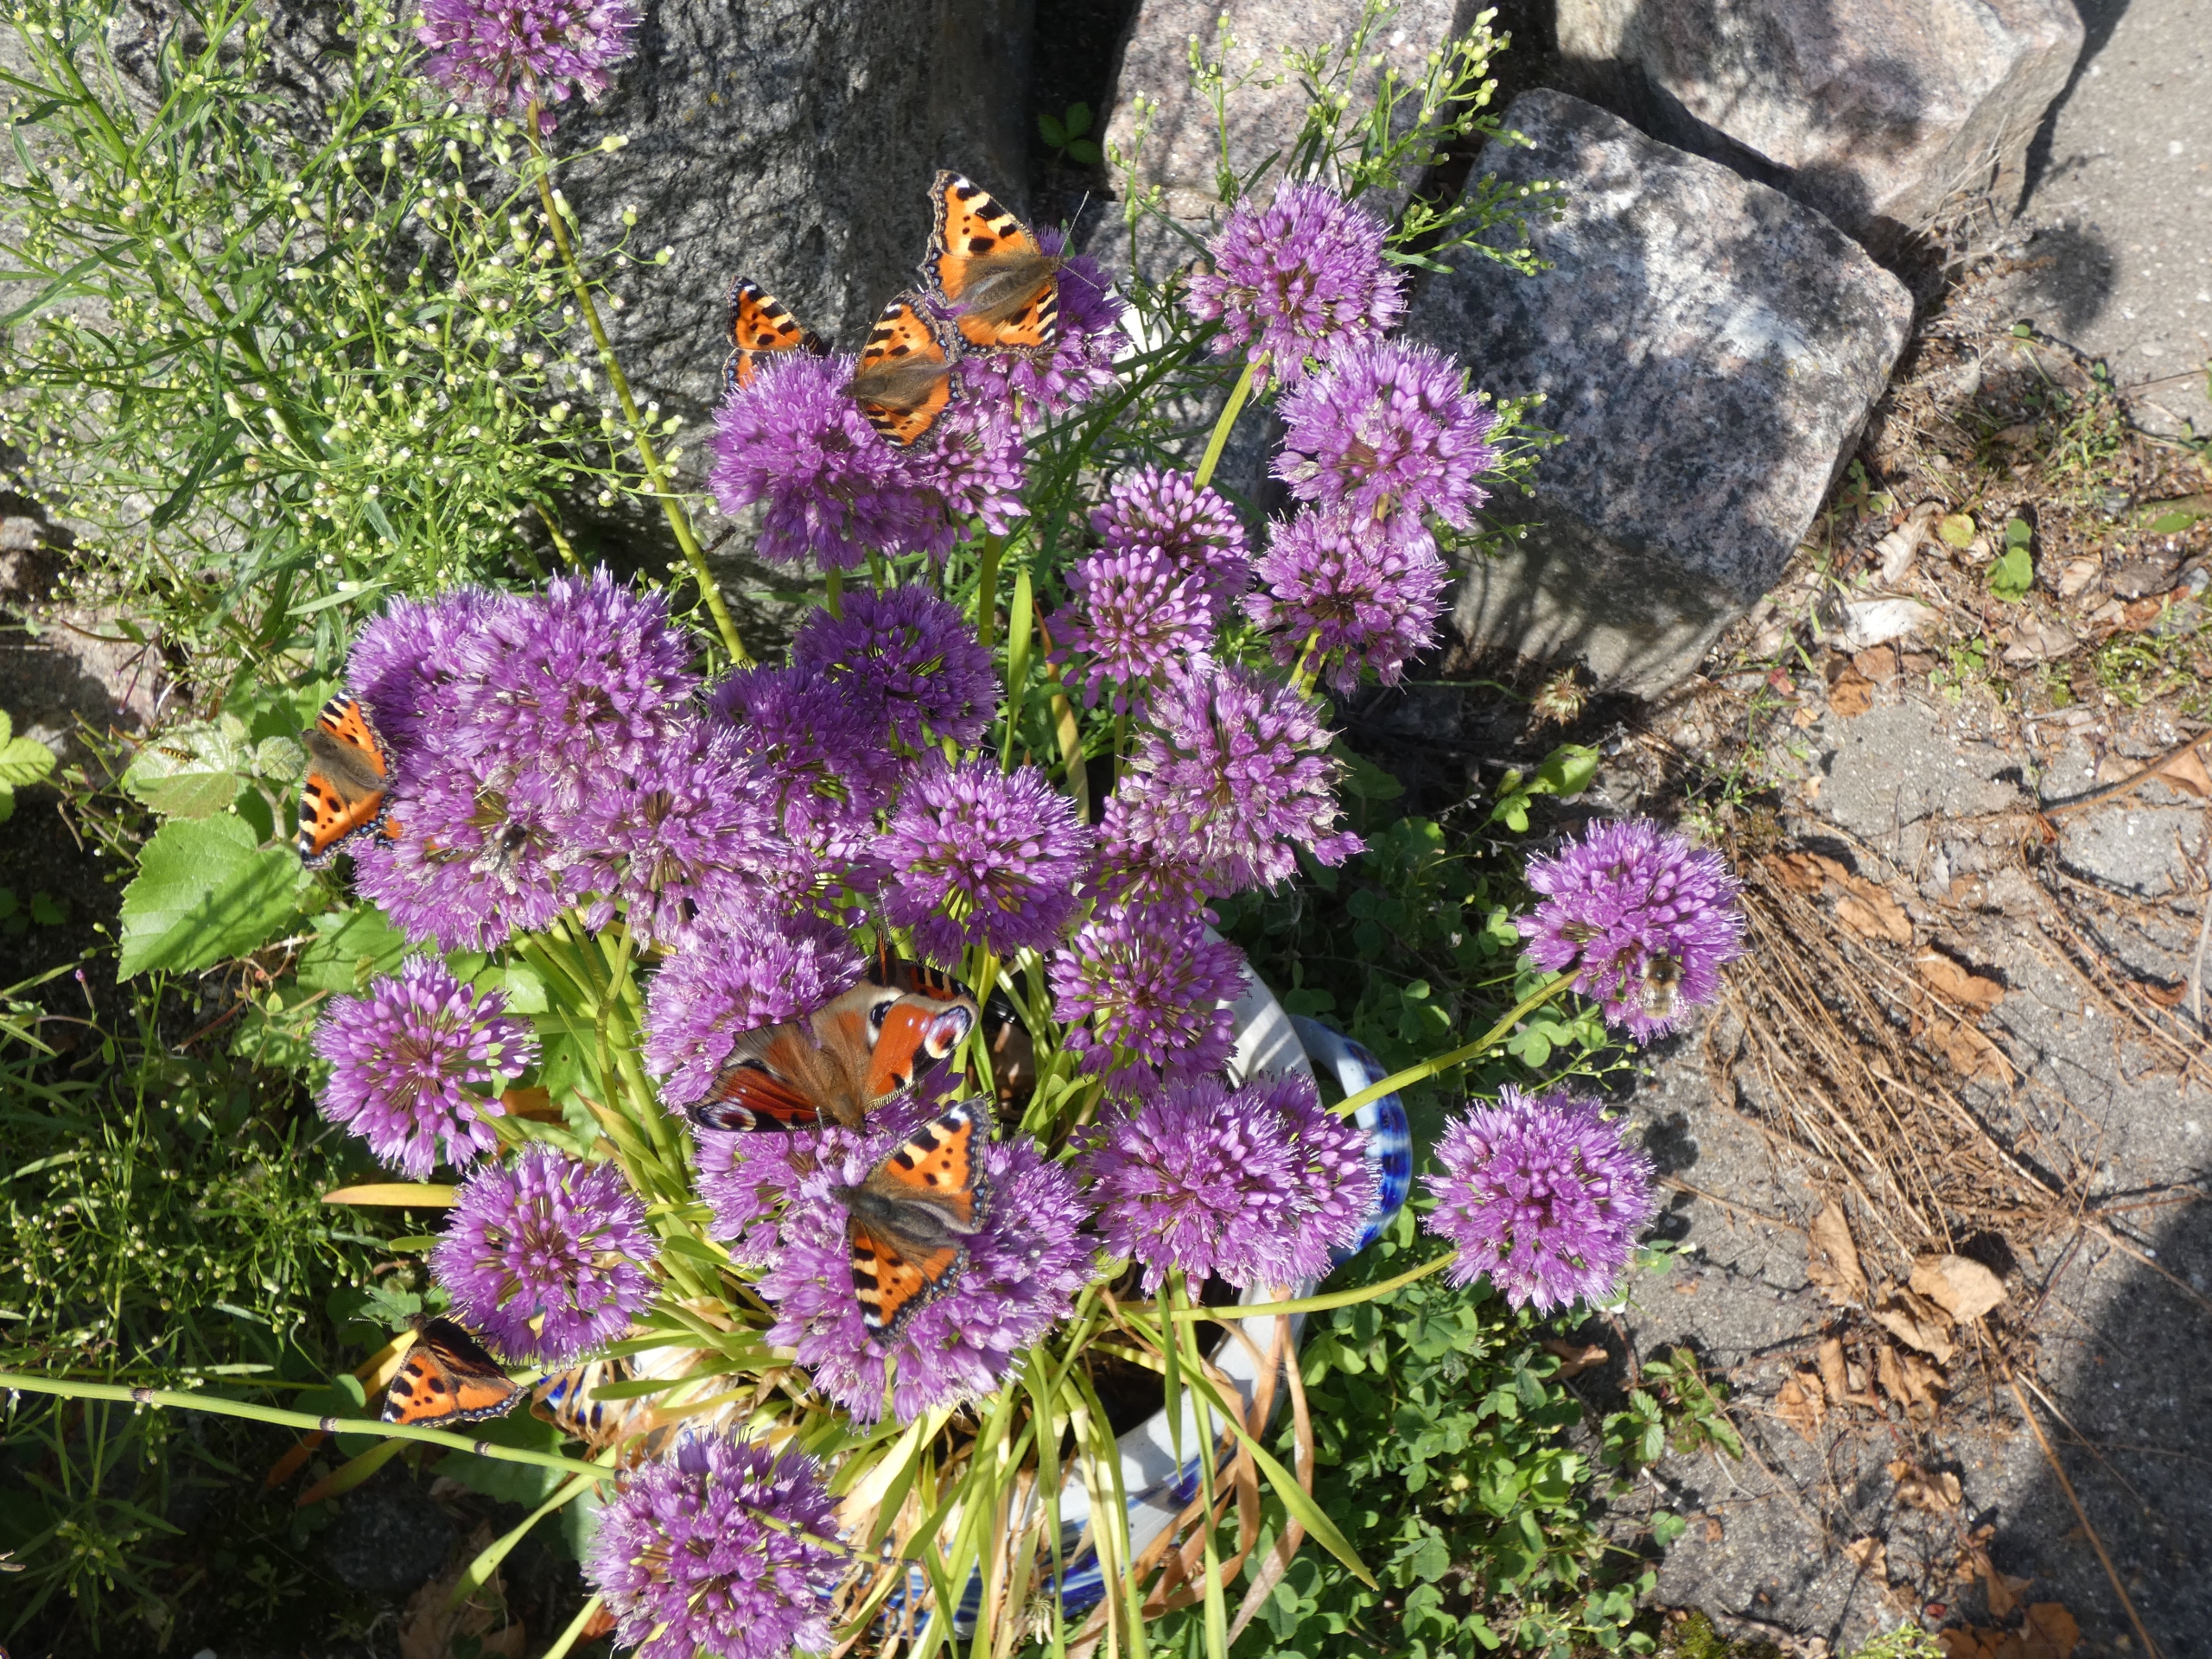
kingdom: Animalia
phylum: Arthropoda
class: Insecta
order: Lepidoptera
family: Nymphalidae
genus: Aglais
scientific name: Aglais io
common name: Dagpåfugleøje
